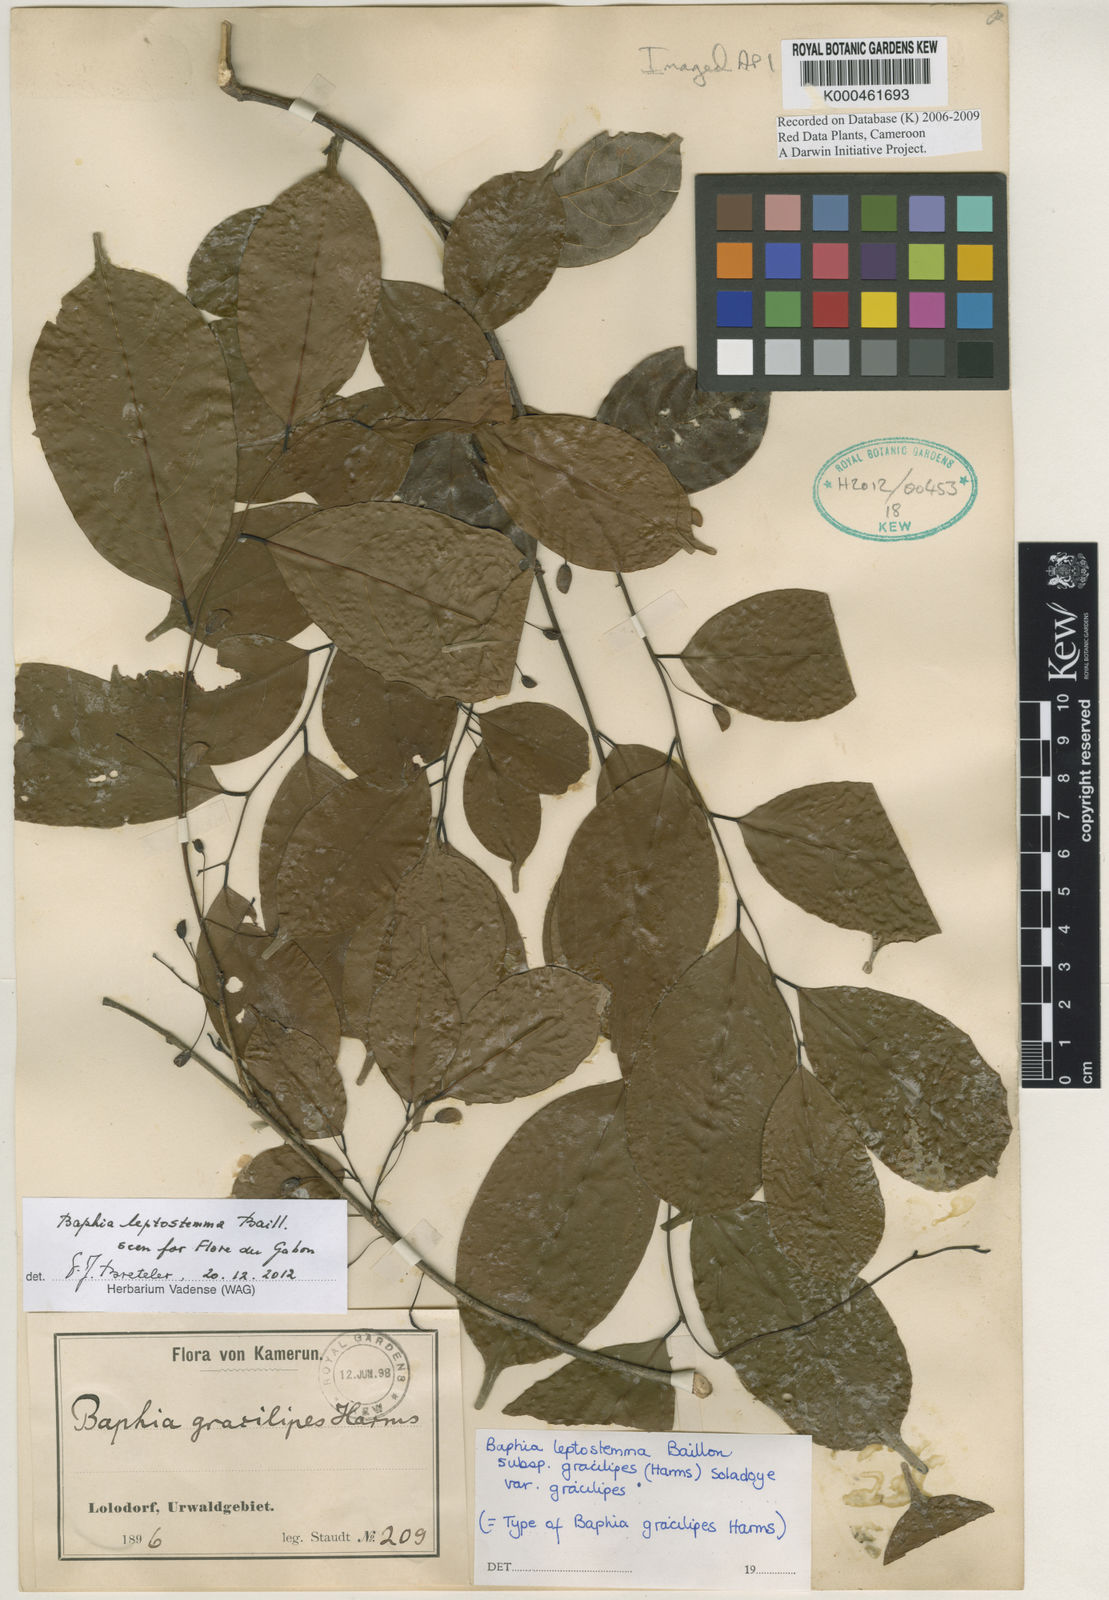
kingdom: Plantae
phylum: Tracheophyta
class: Magnoliopsida
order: Fabales
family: Fabaceae
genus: Baphia
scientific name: Baphia leptostemma
